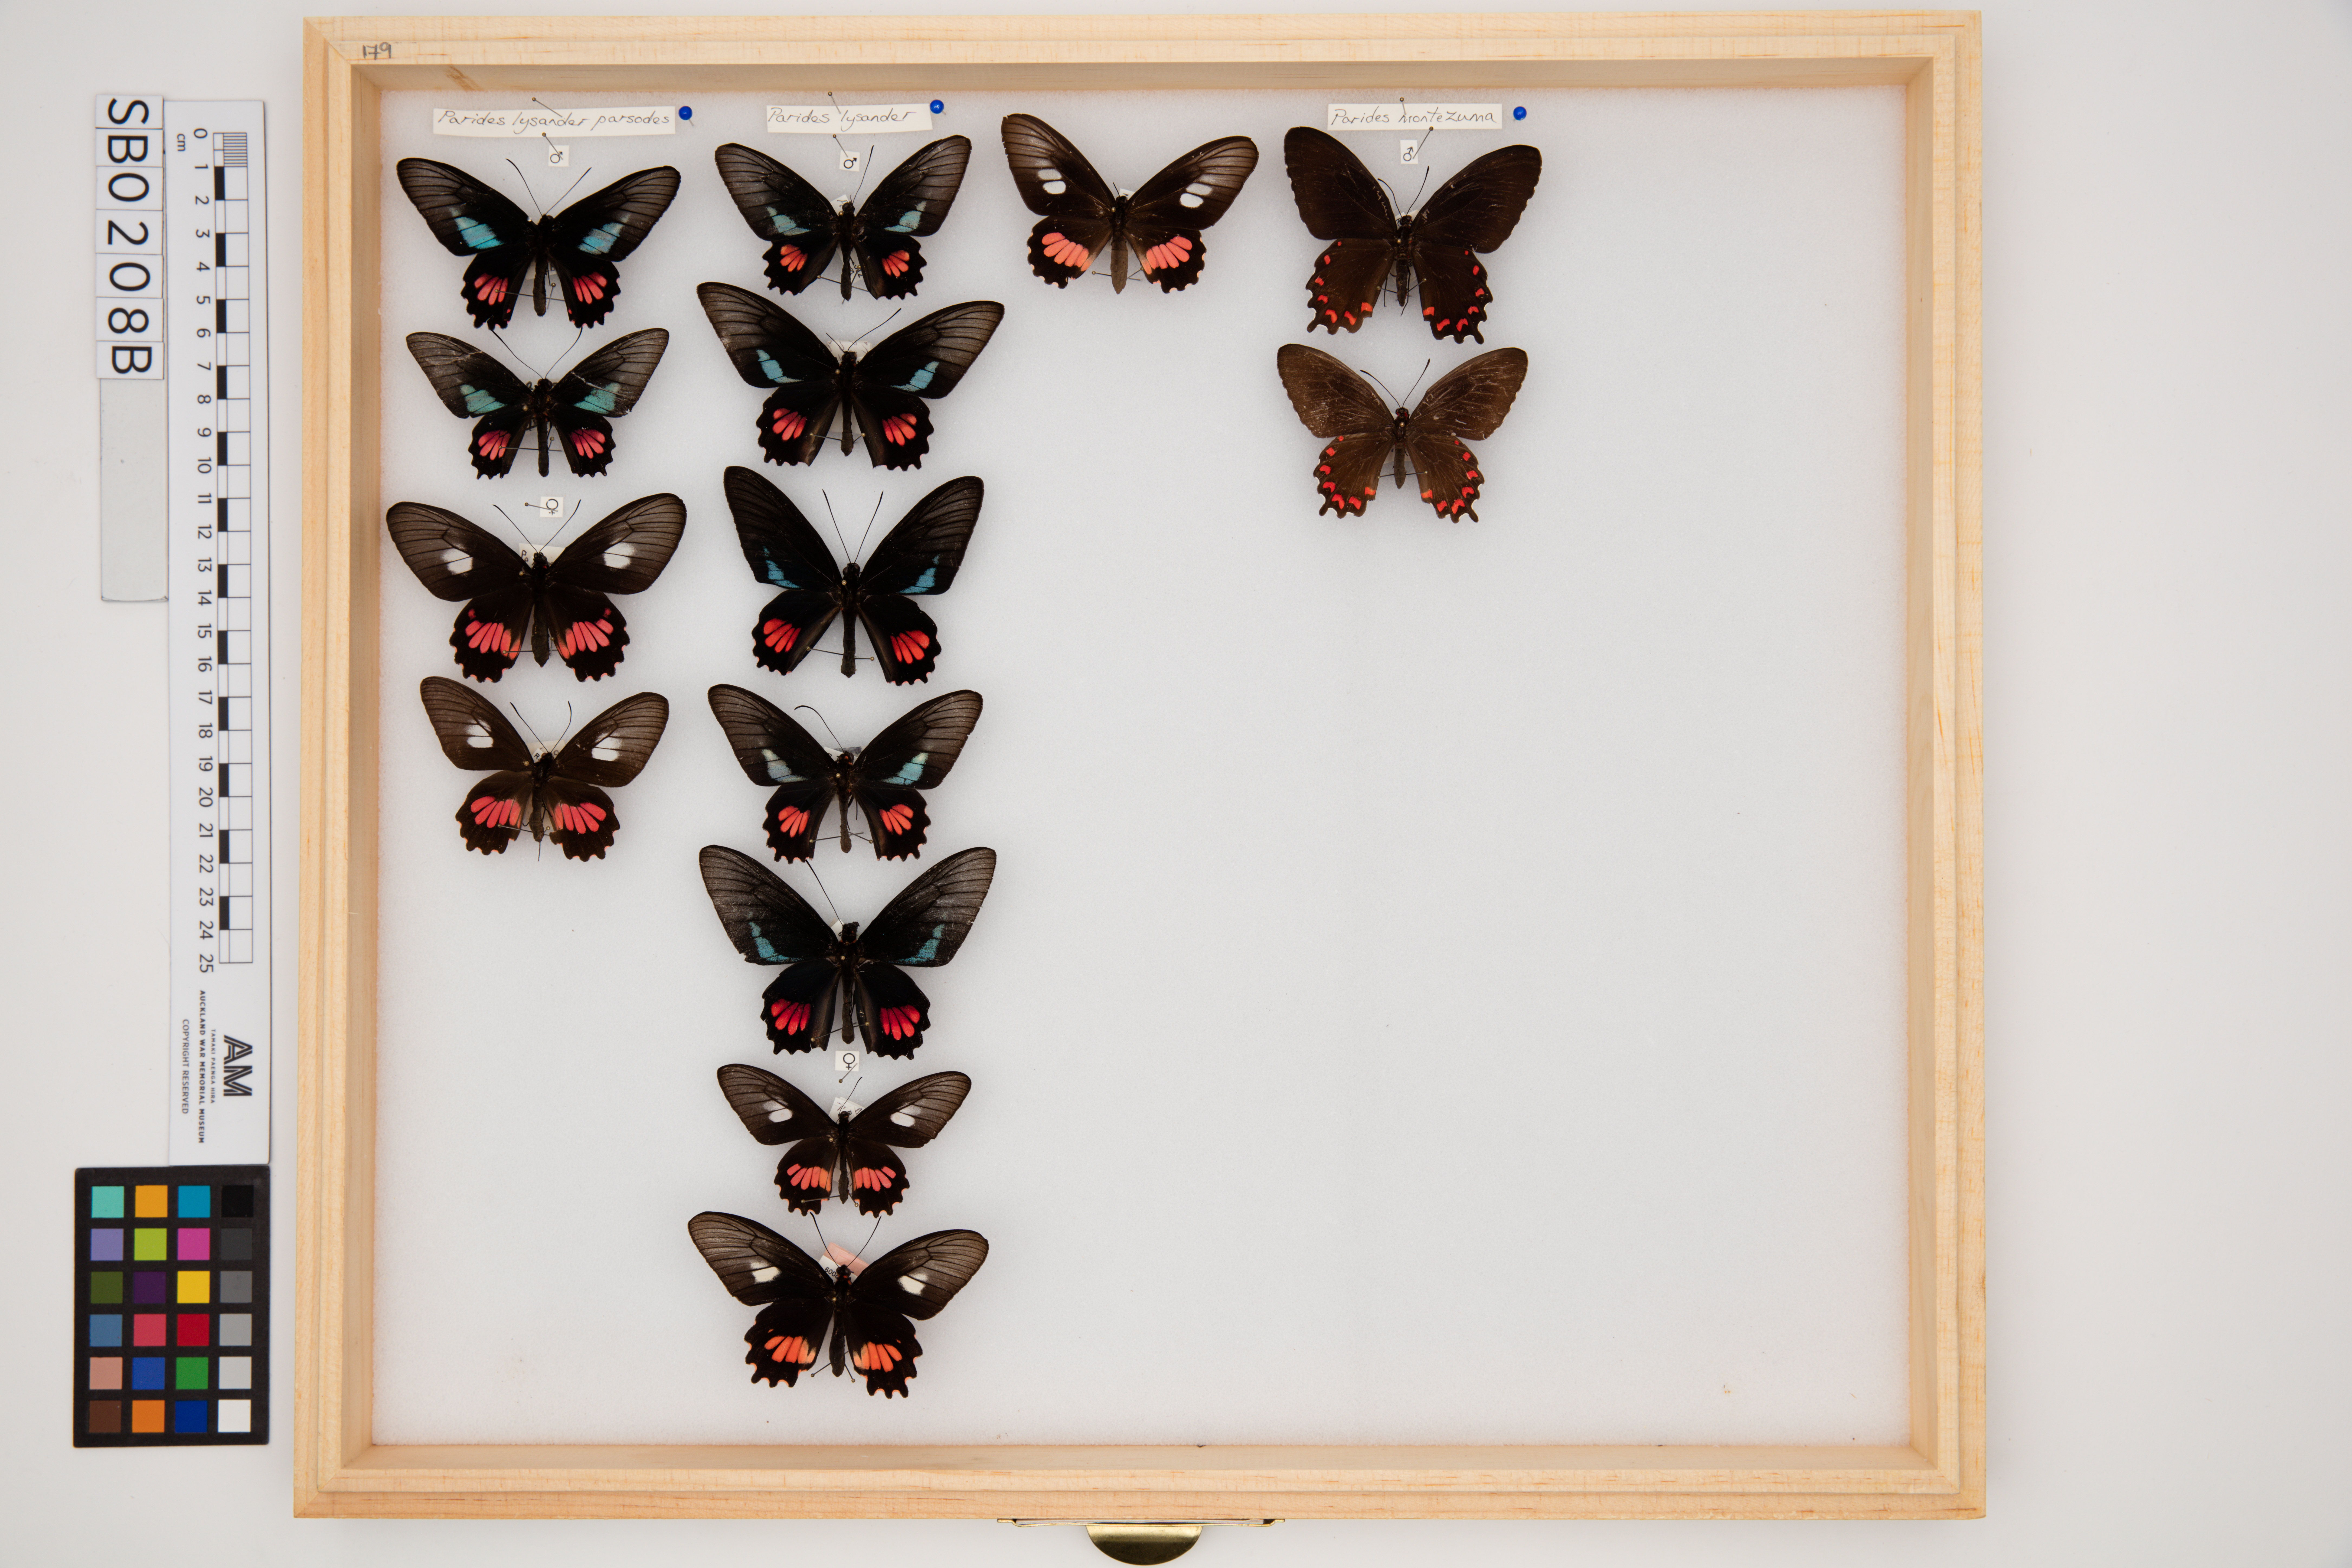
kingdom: Animalia
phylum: Arthropoda
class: Insecta
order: Lepidoptera
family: Papilionidae
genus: Parides
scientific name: Parides lysander
